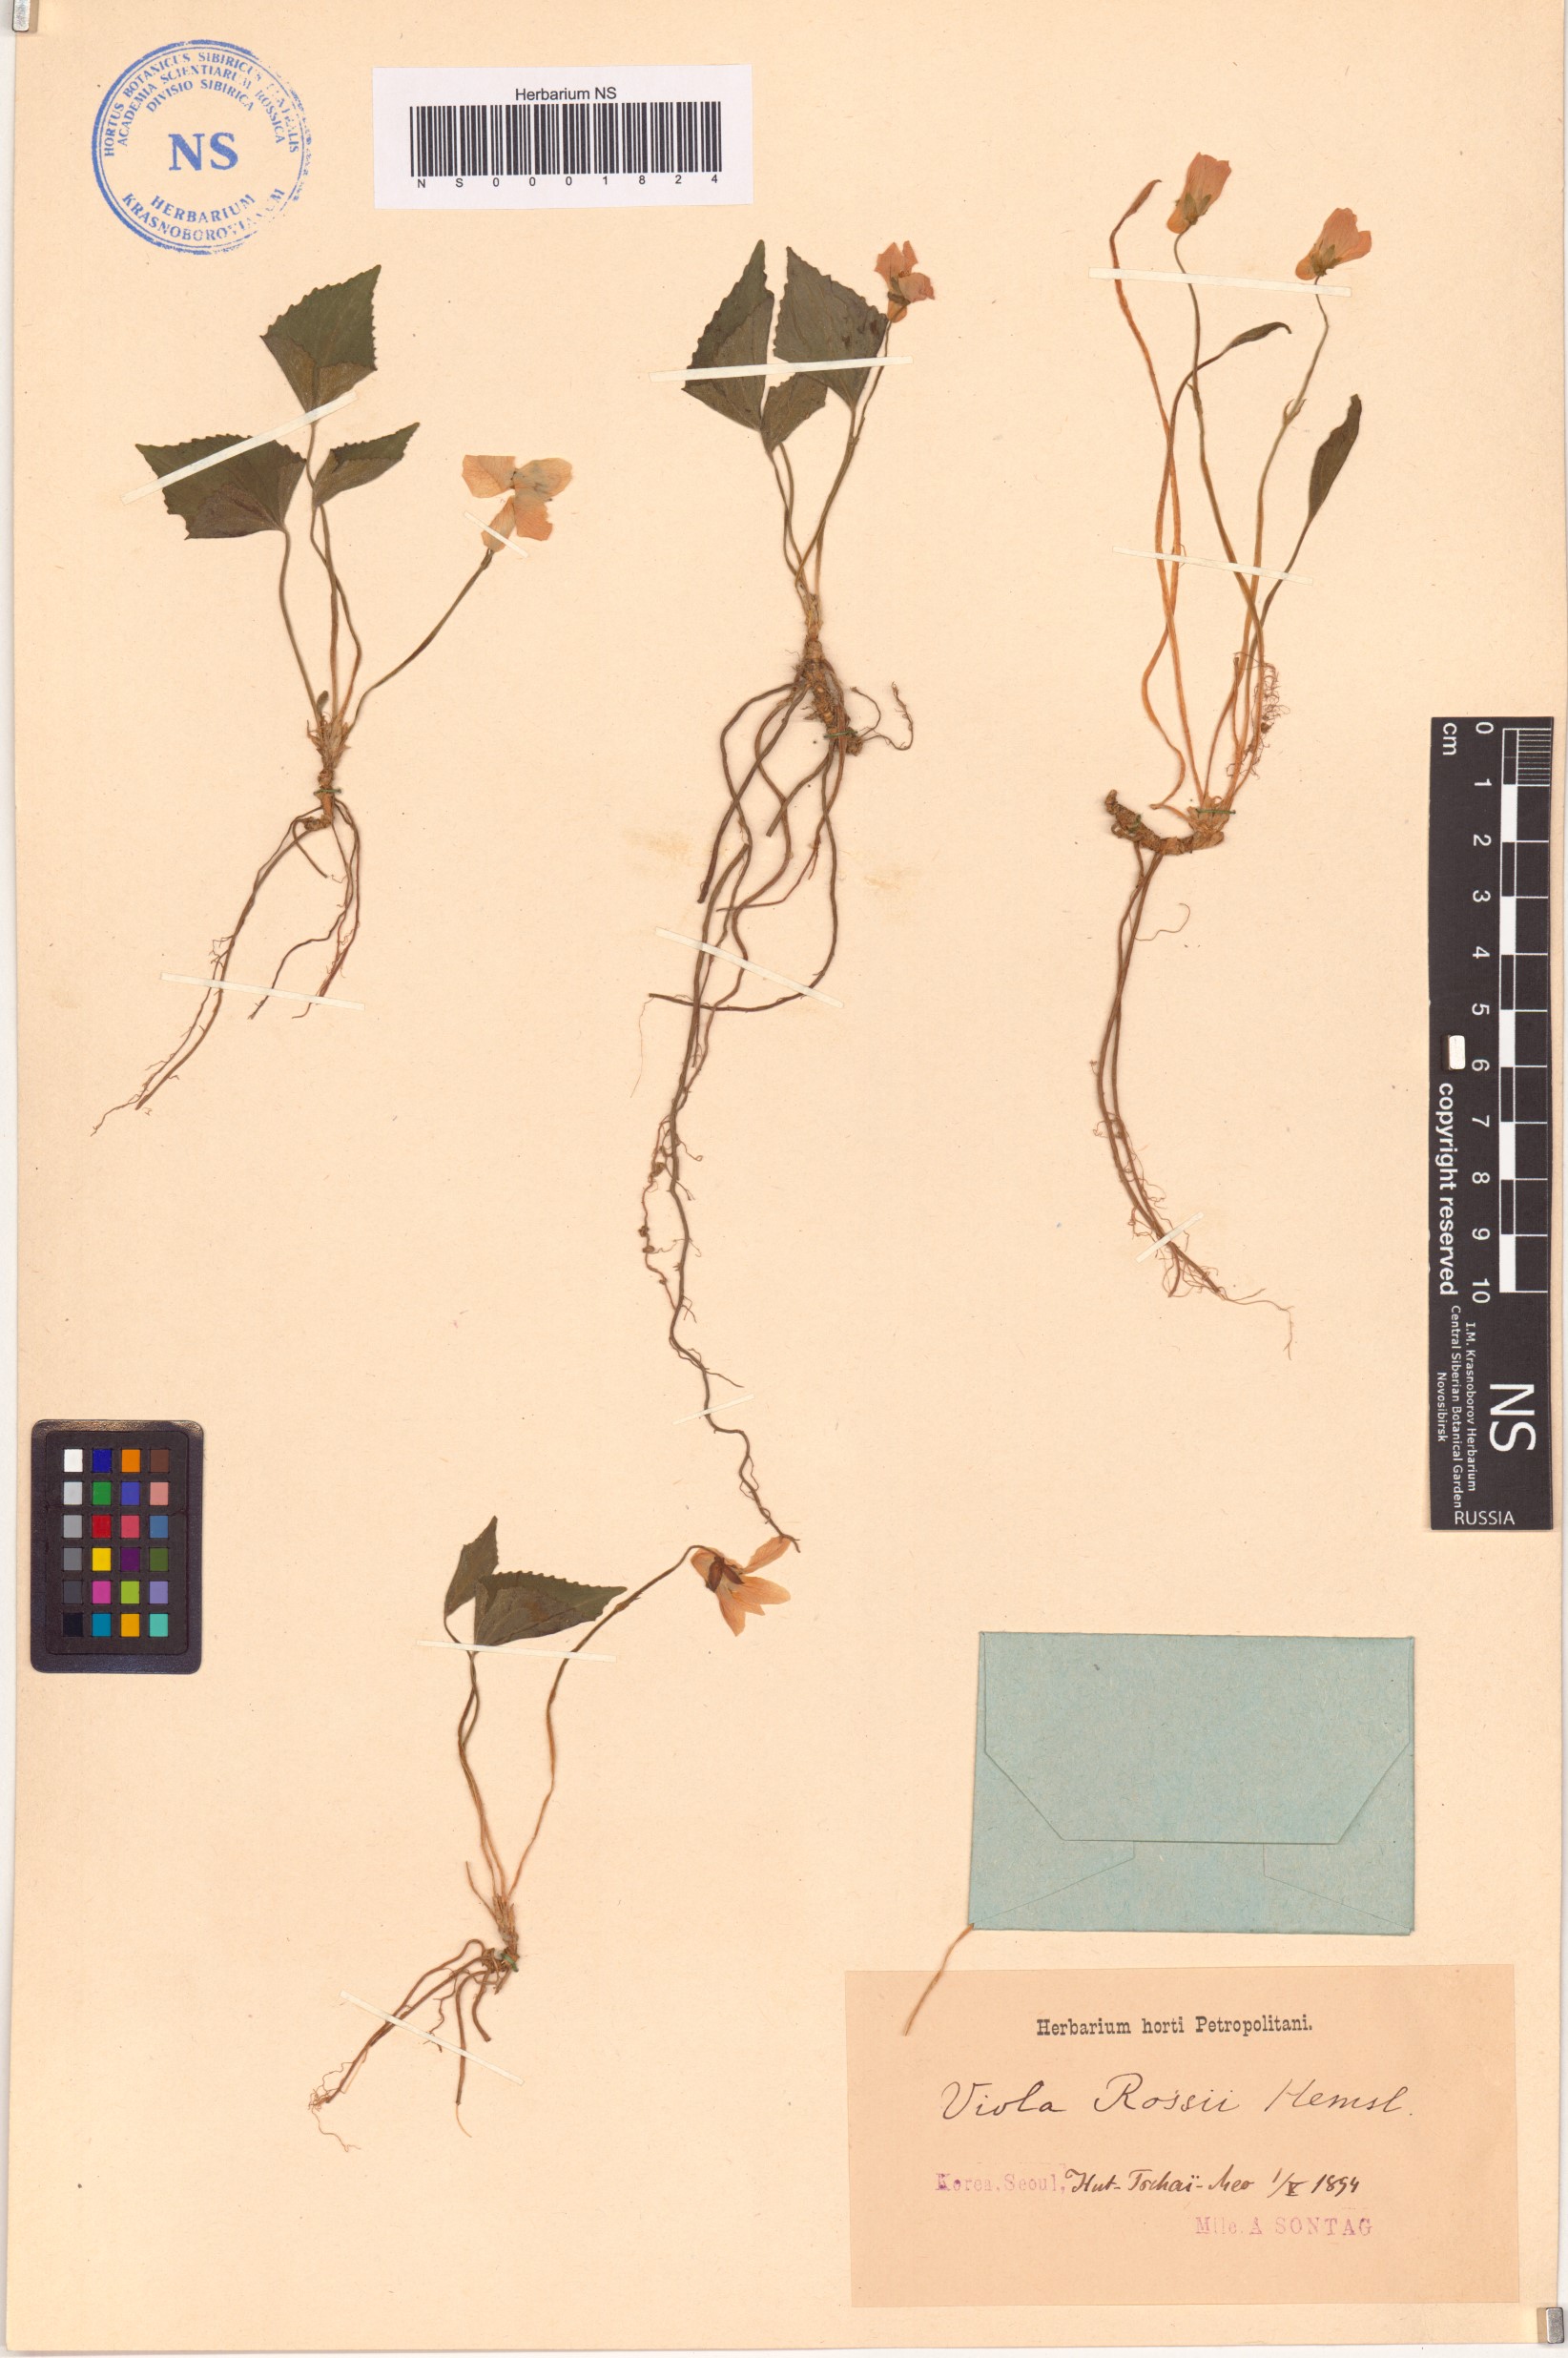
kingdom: Plantae
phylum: Tracheophyta
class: Magnoliopsida
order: Malpighiales
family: Violaceae
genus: Viola
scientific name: Viola rossii
